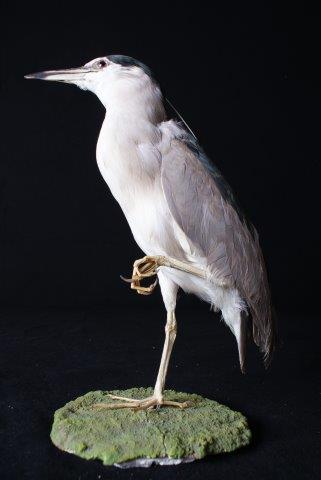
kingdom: Animalia
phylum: Chordata
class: Aves
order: Pelecaniformes
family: Ardeidae
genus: Nycticorax
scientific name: Nycticorax nycticorax
